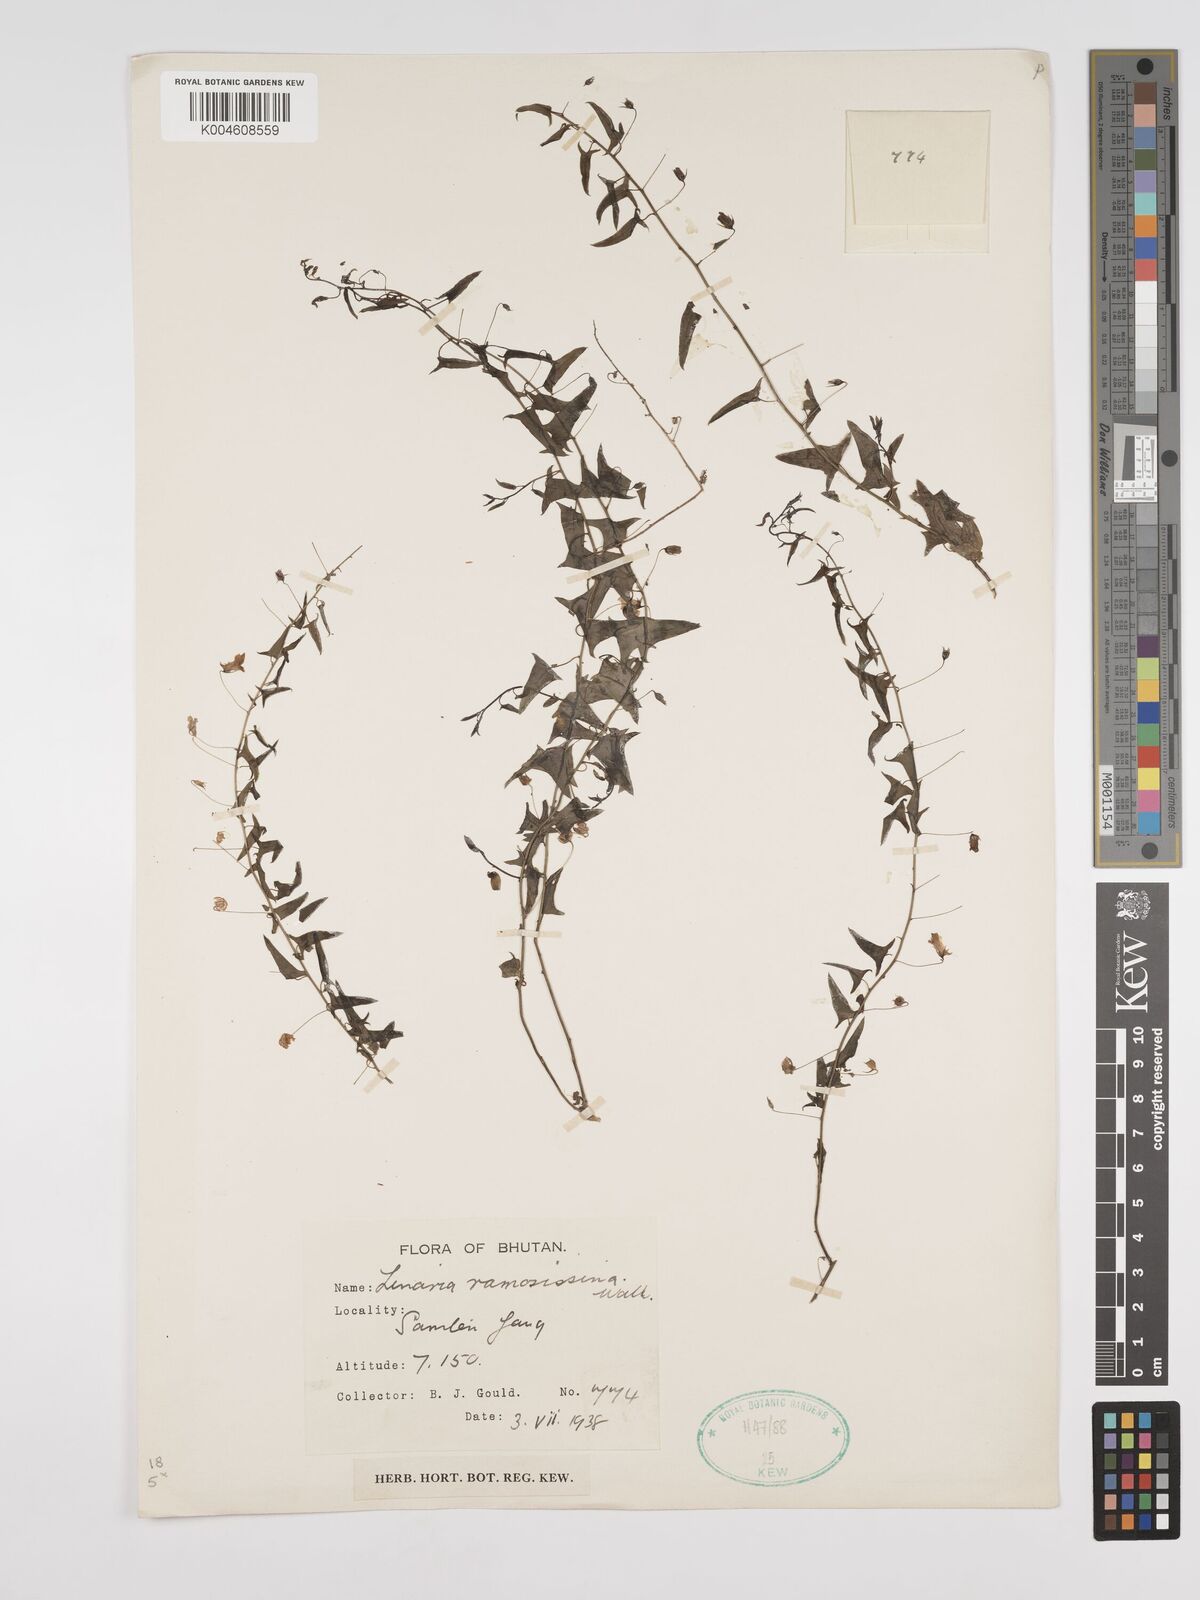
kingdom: Plantae
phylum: Tracheophyta
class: Magnoliopsida
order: Lamiales
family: Plantaginaceae
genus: Nanorrhinum
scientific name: Nanorrhinum ramosissimum
